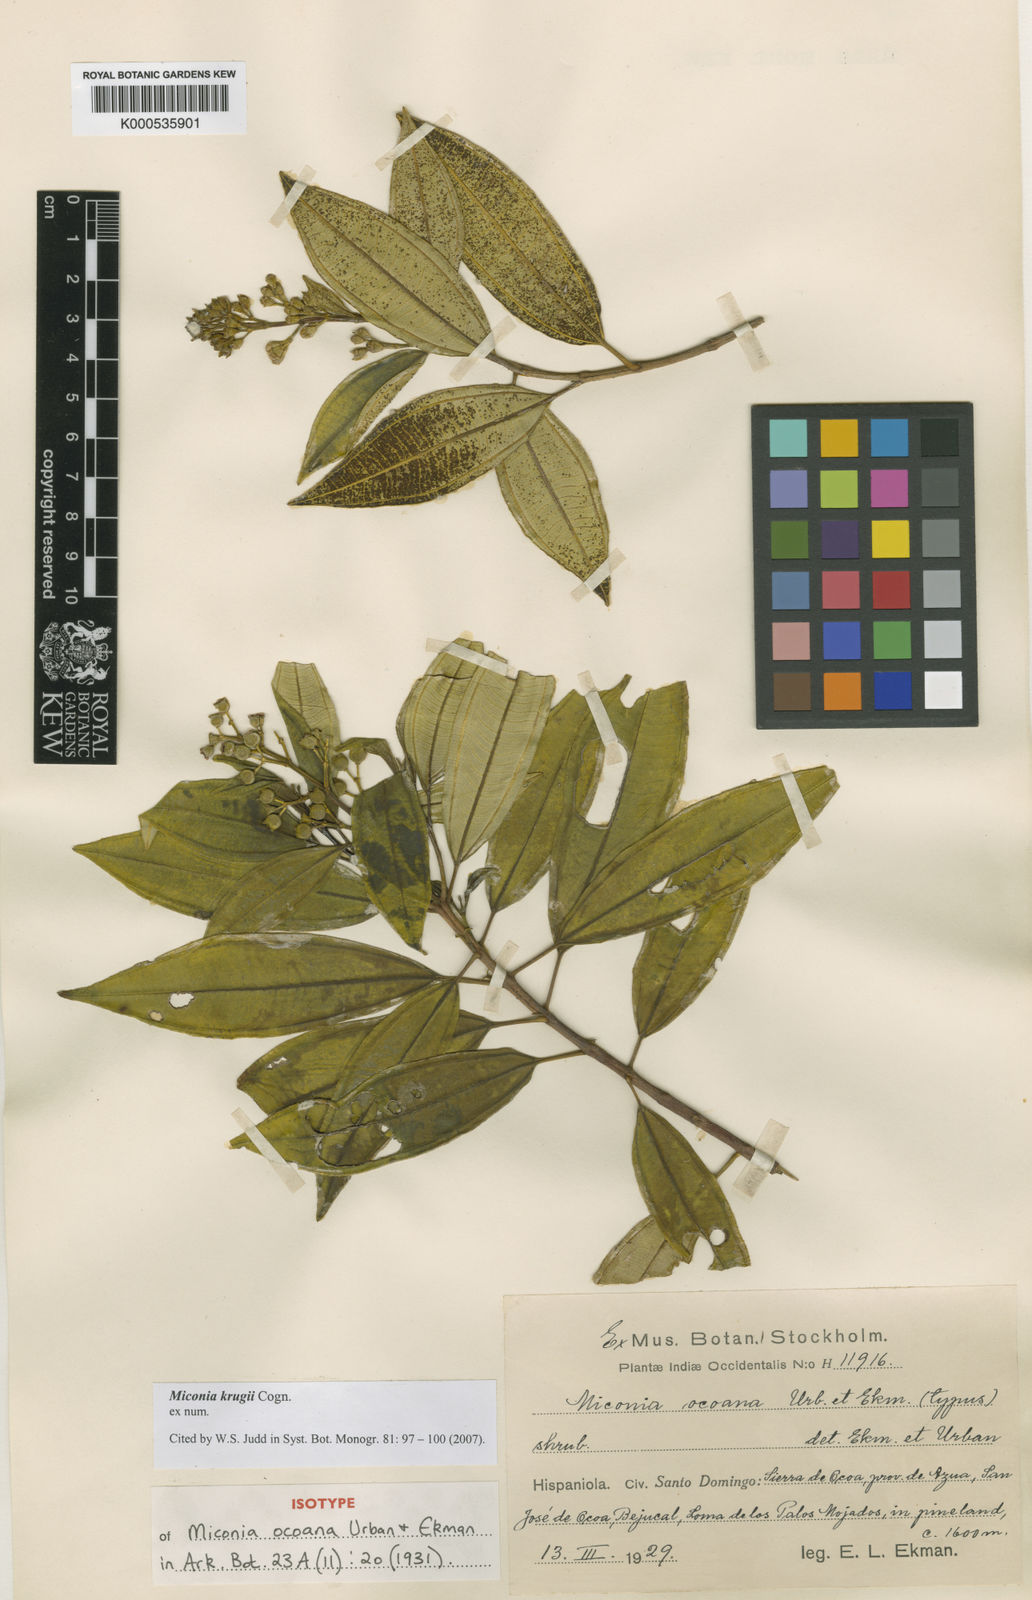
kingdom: Plantae
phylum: Tracheophyta
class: Magnoliopsida
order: Myrtales
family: Melastomataceae
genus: Miconia
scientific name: Miconia krugii
